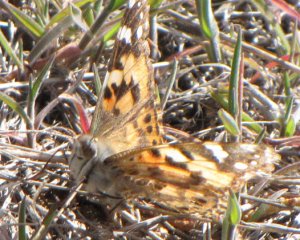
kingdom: Animalia
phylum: Arthropoda
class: Insecta
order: Lepidoptera
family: Nymphalidae
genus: Vanessa
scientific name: Vanessa cardui
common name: Painted Lady
